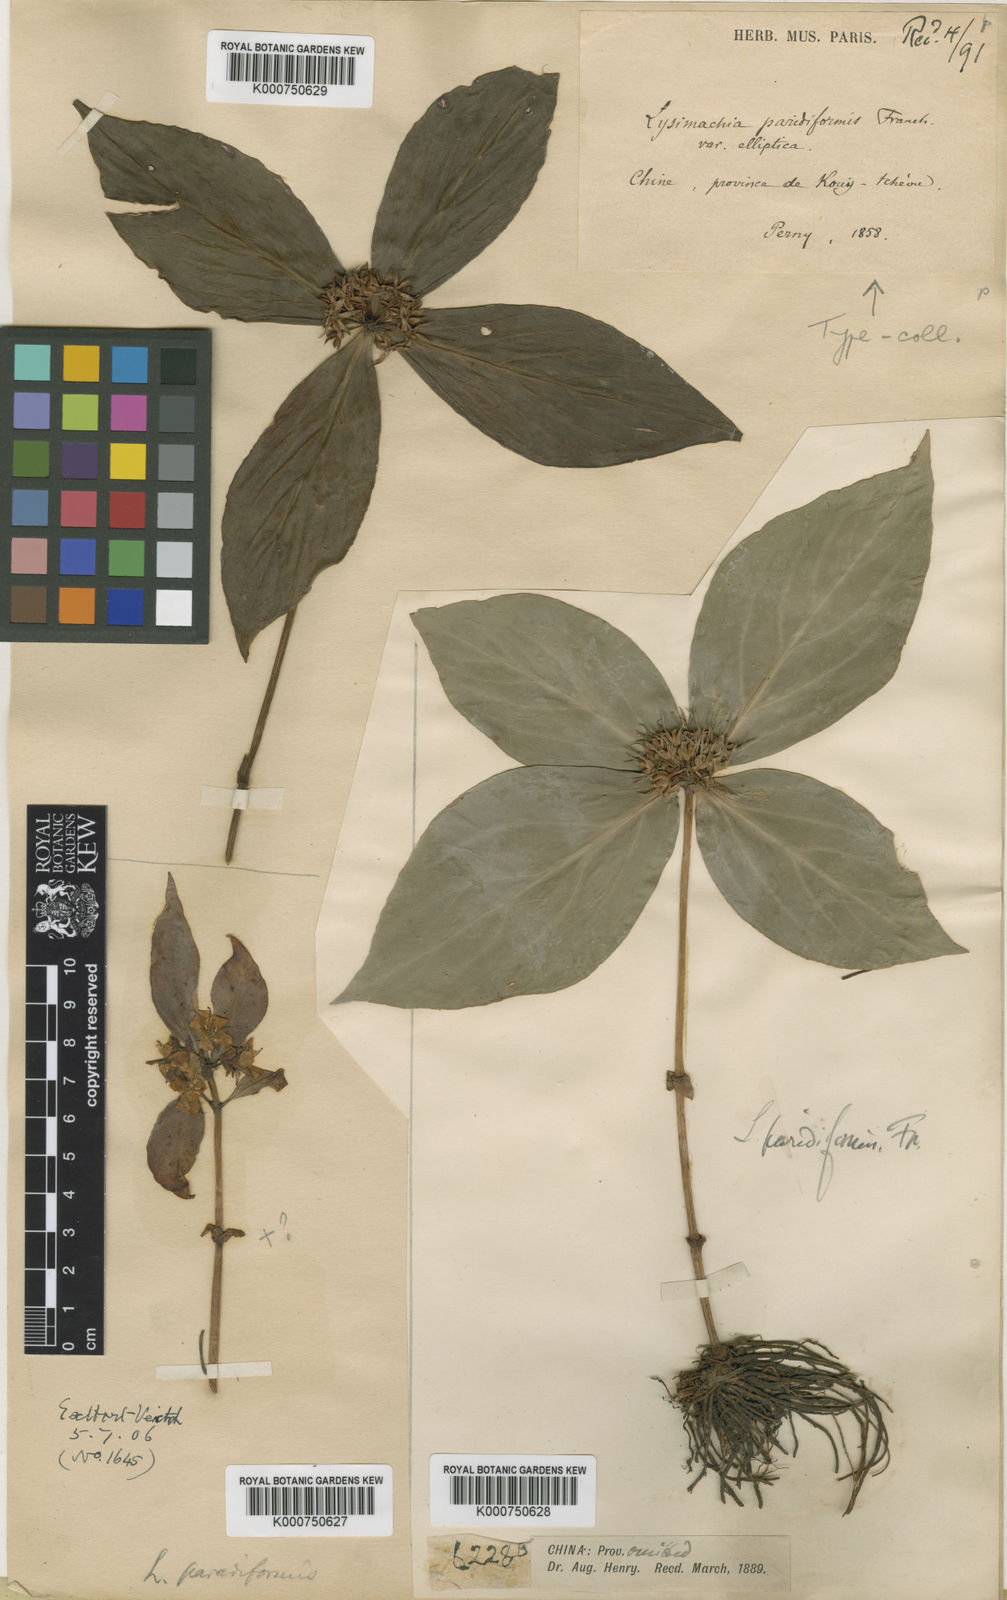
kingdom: Plantae
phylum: Tracheophyta
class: Magnoliopsida
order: Ericales
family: Primulaceae
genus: Lysimachia
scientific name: Lysimachia paridiformis
